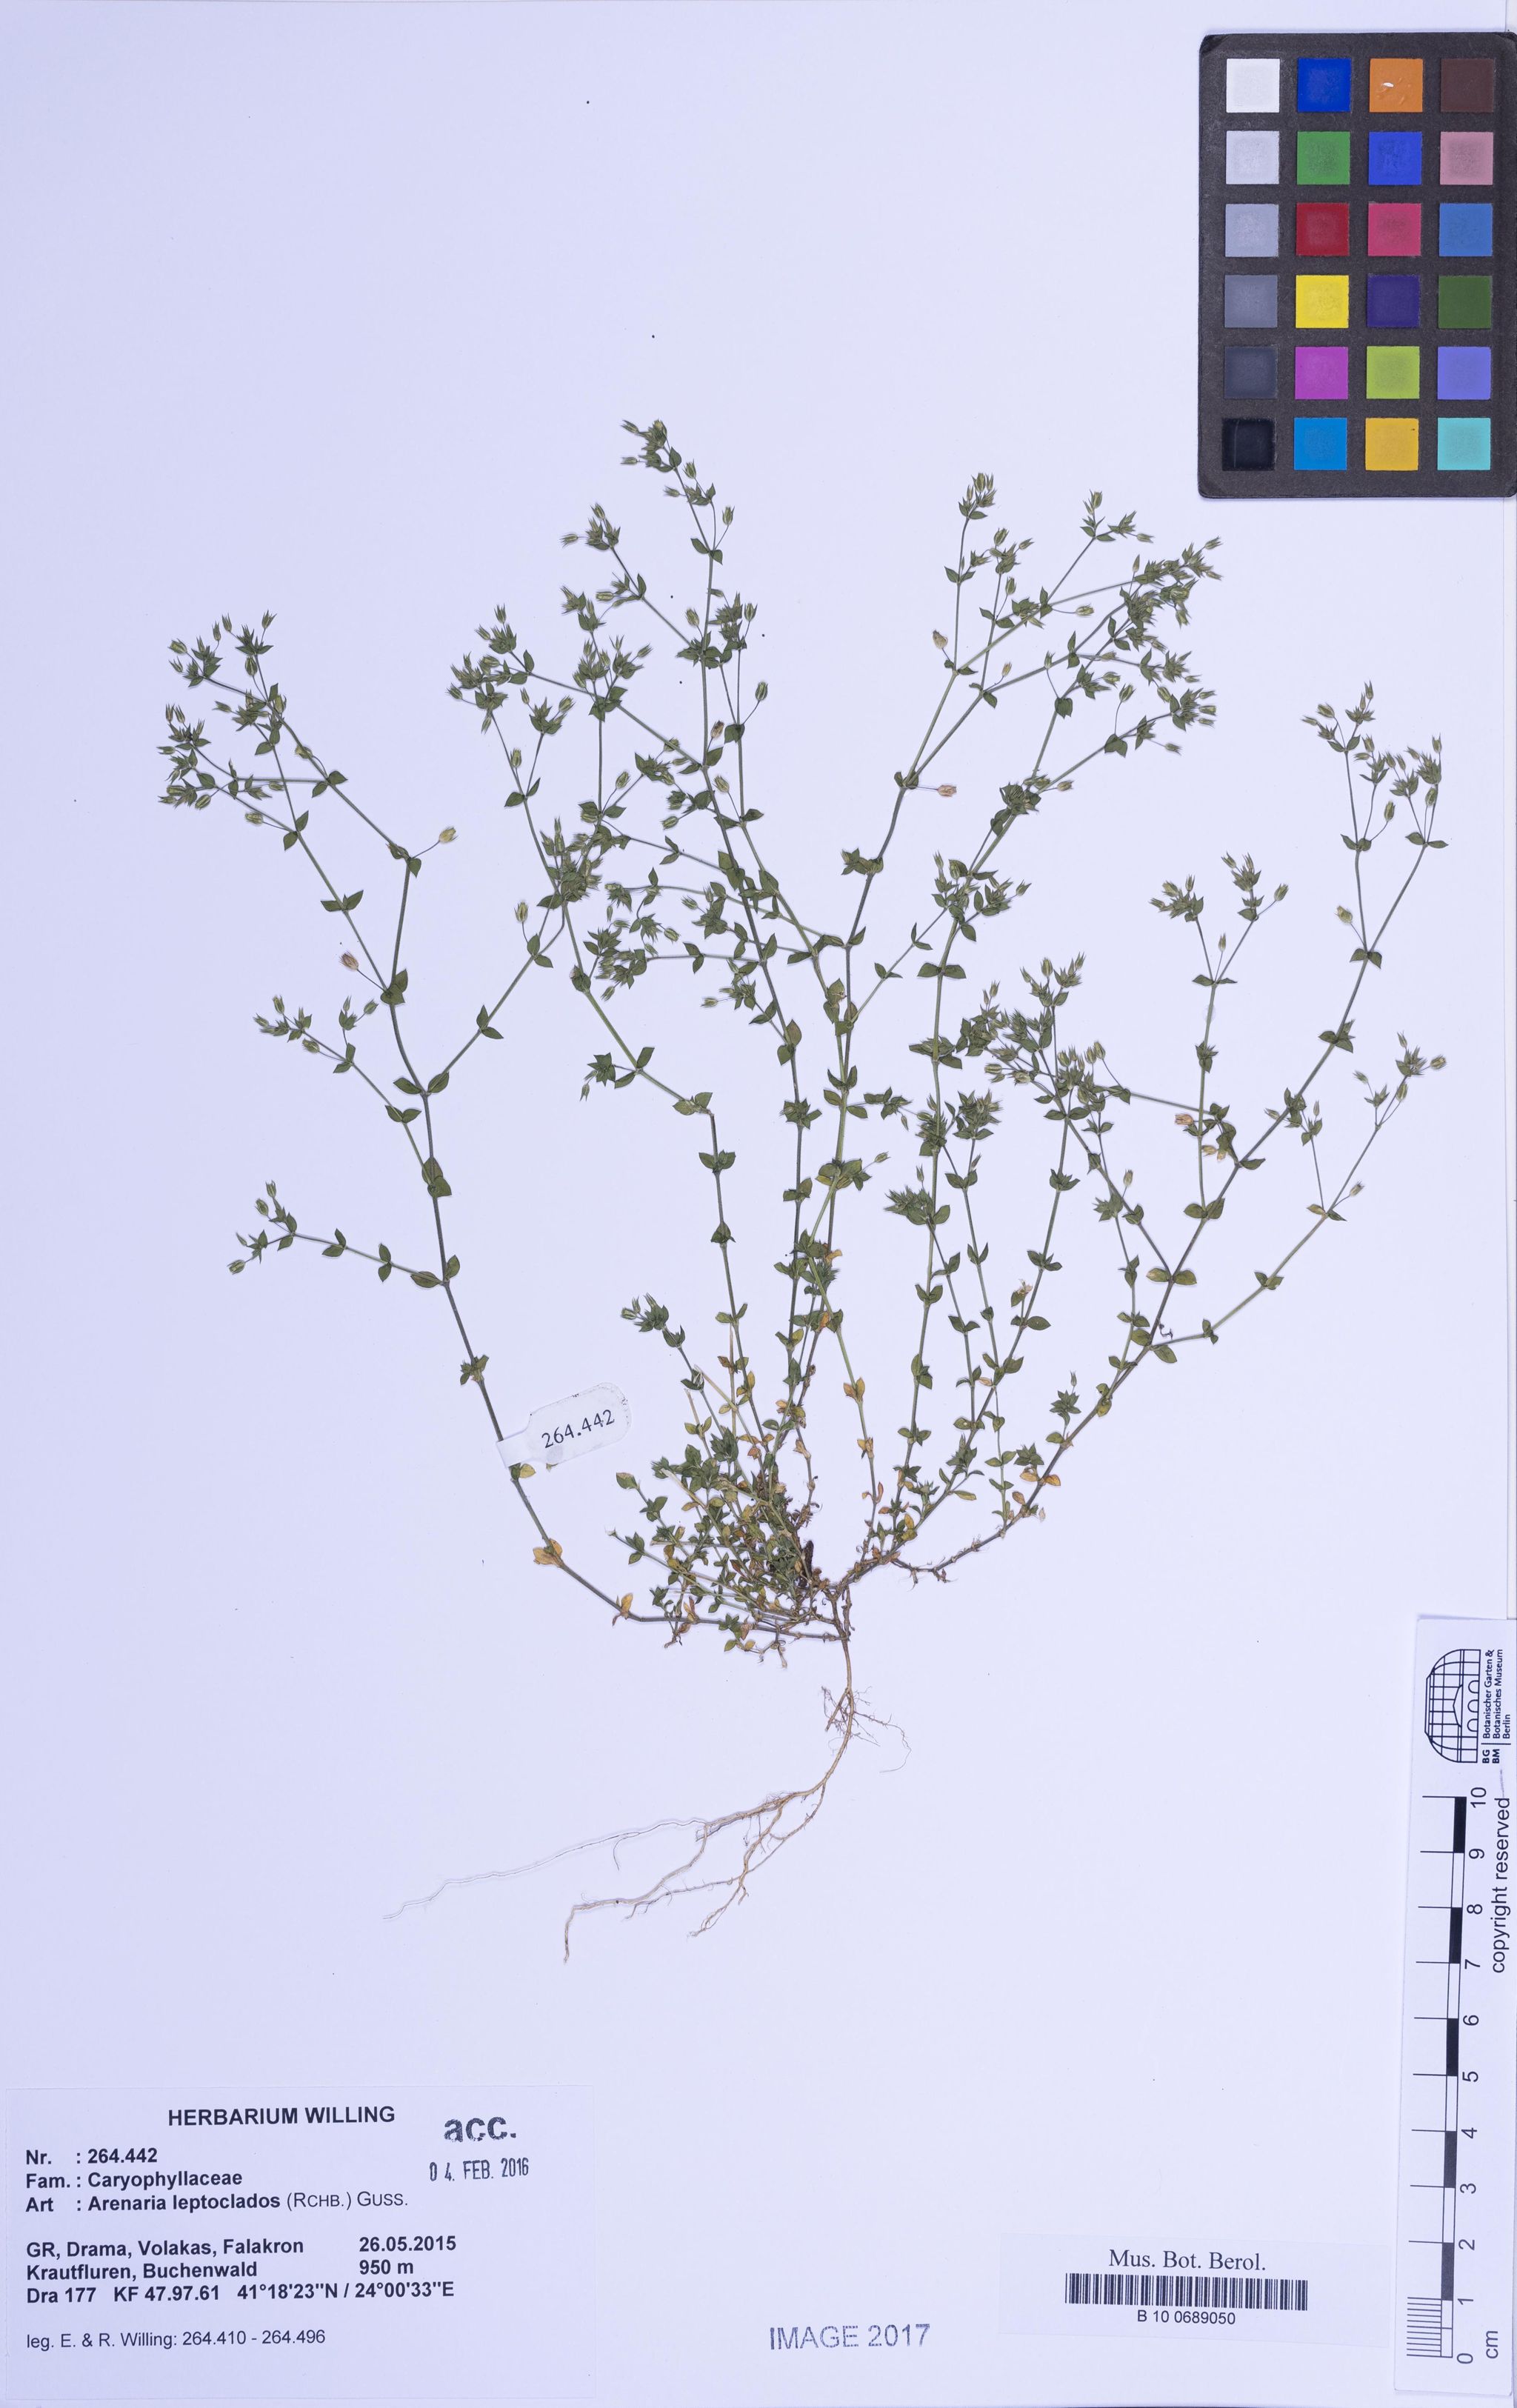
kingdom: Plantae
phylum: Tracheophyta
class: Magnoliopsida
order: Caryophyllales
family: Caryophyllaceae
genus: Arenaria
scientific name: Arenaria leptoclados
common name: Thyme-leaved sandwort
